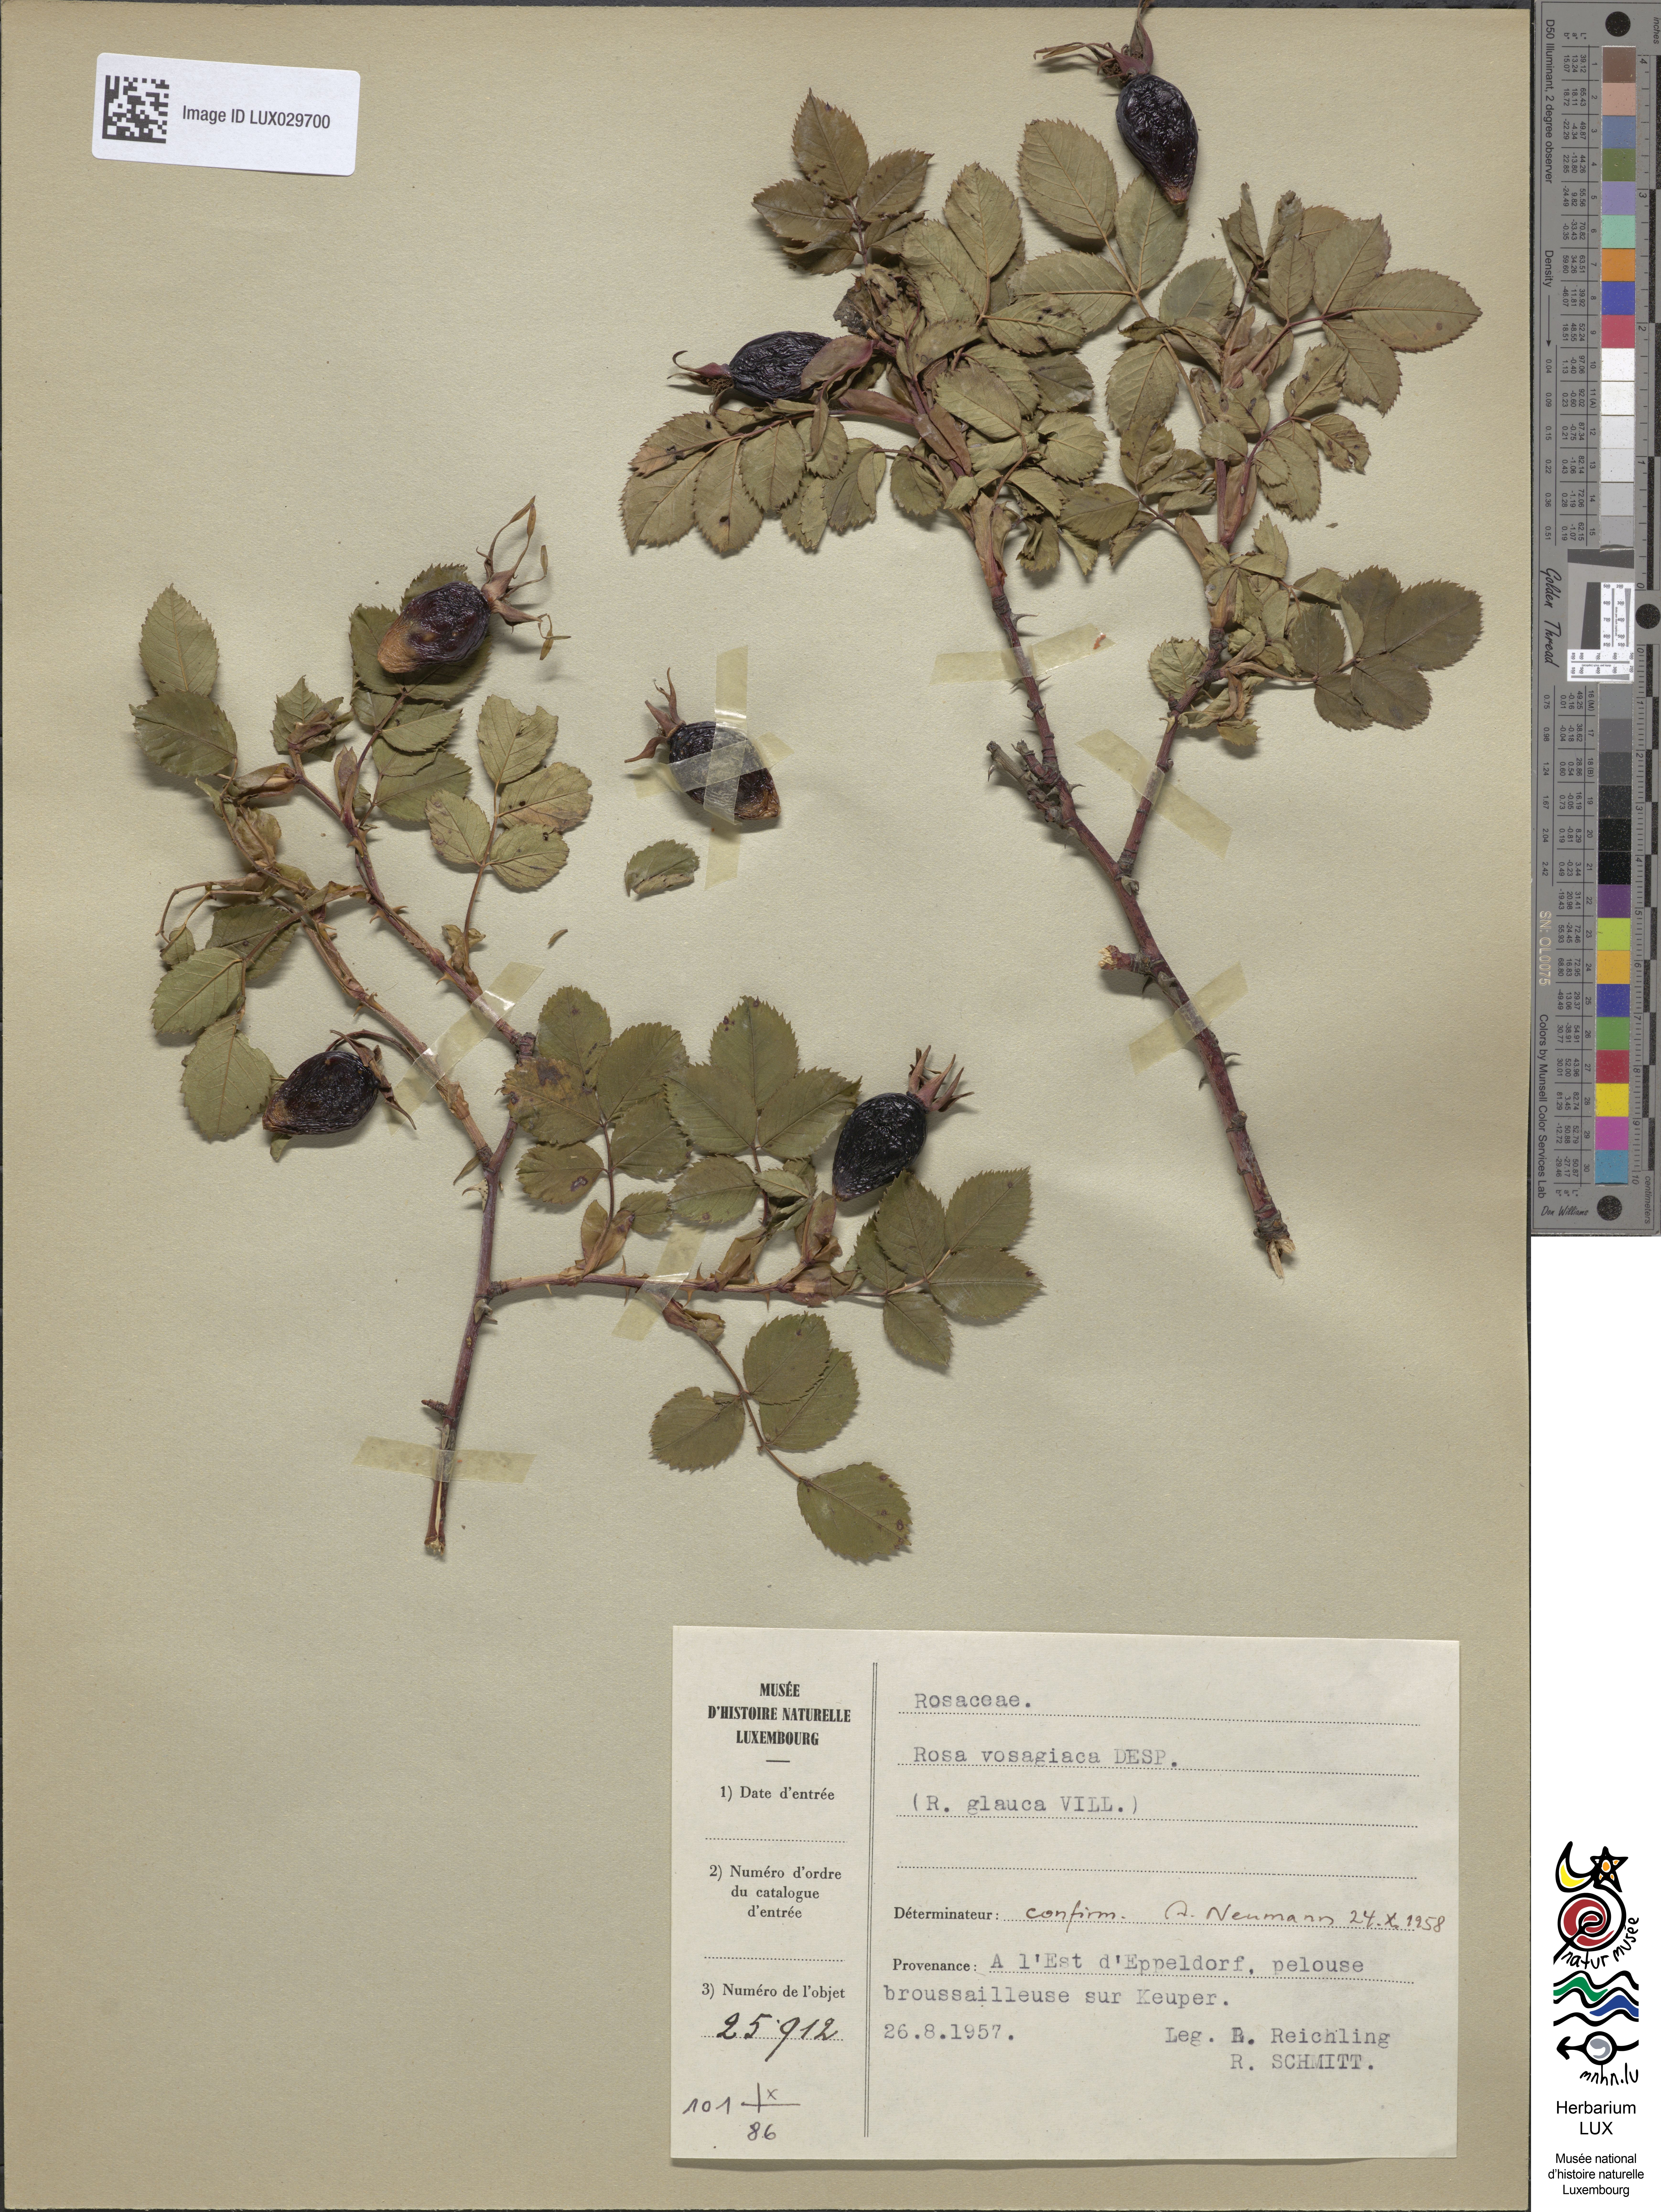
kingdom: Plantae
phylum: Tracheophyta
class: Magnoliopsida
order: Rosales
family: Rosaceae
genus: Rosa
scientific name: Rosa dumalis
